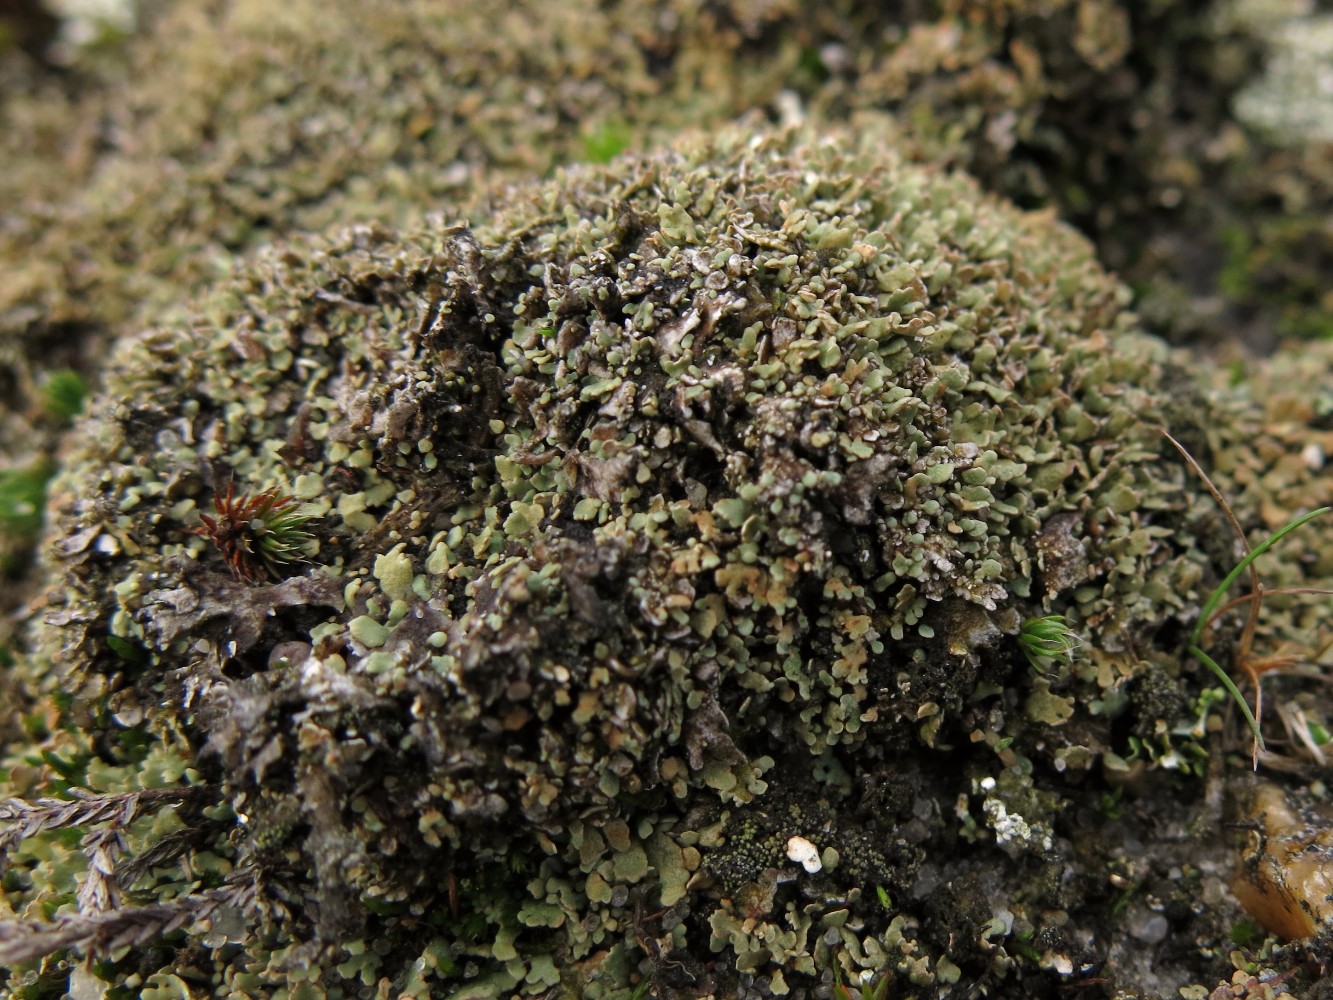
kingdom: Fungi
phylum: Ascomycota
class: Lecanoromycetes
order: Lecanorales
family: Cladoniaceae
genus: Cladonia
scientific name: Cladonia strepsilis
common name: pude-bægerlav
